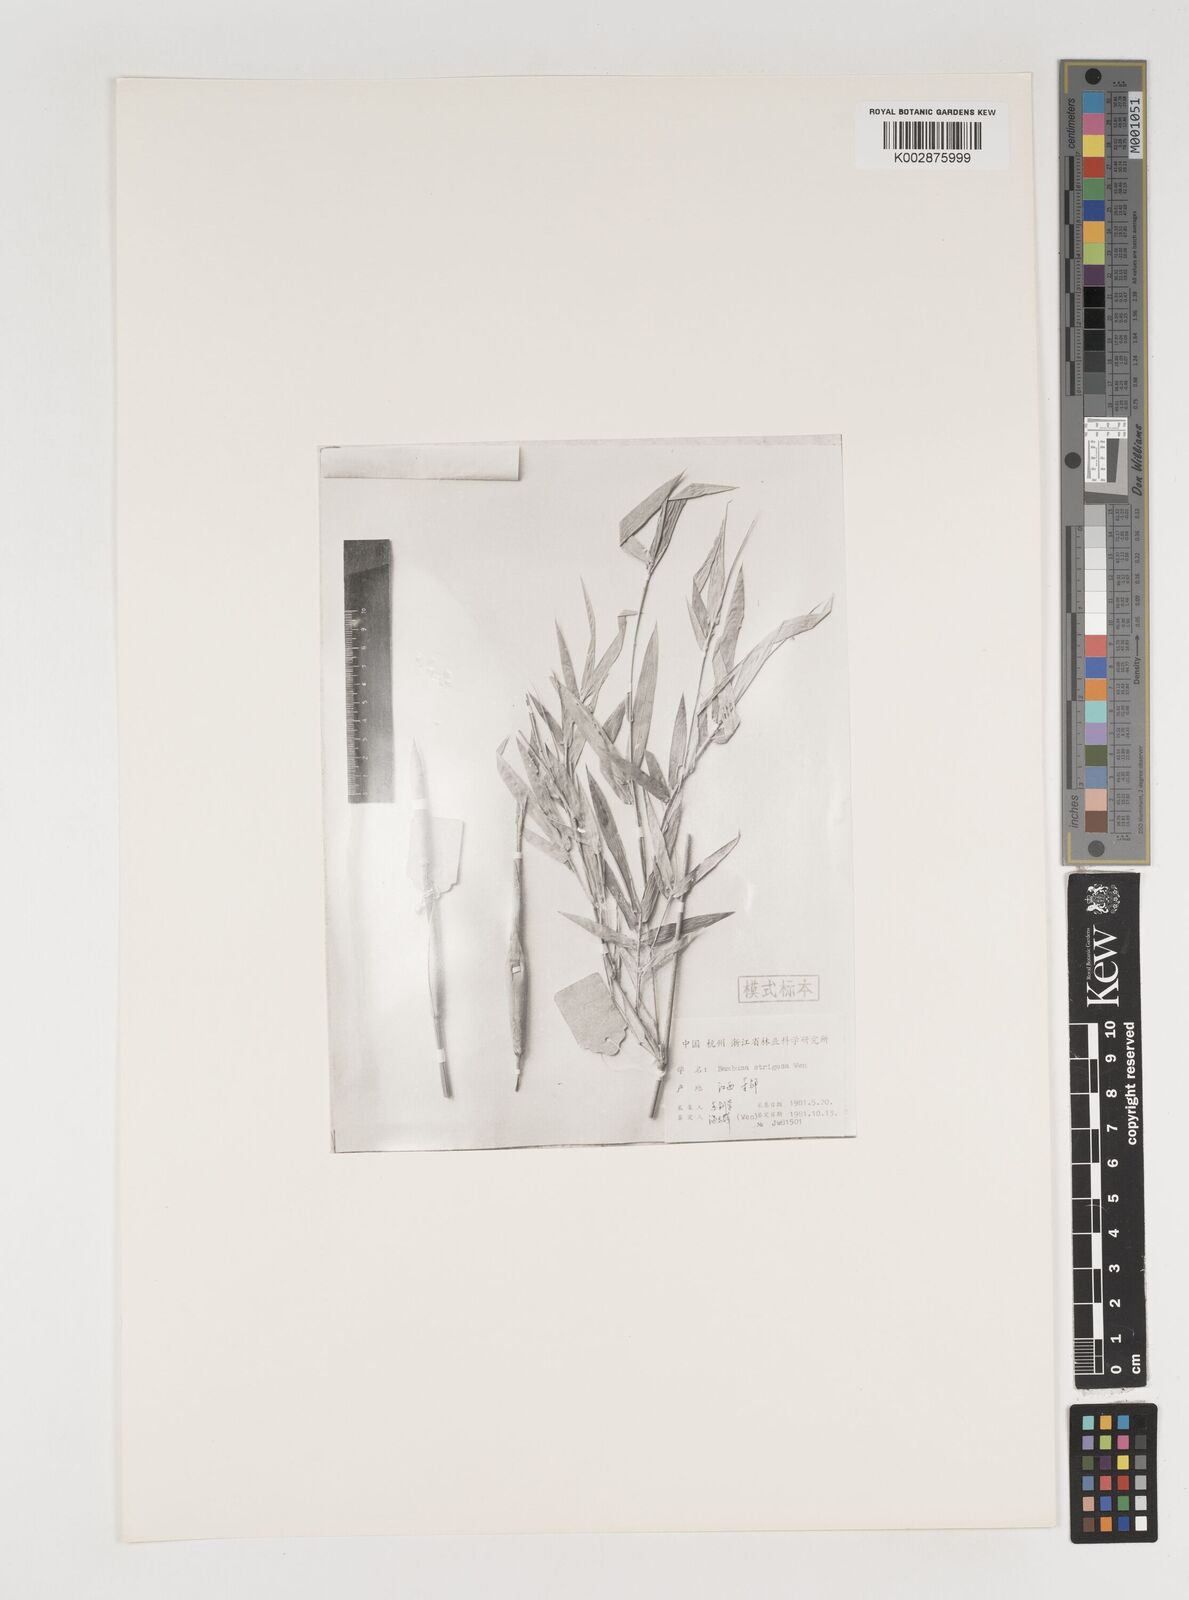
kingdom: Plantae
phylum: Tracheophyta
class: Liliopsida
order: Poales
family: Poaceae
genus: Bambusa
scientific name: Bambusa multiplex
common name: Hedge bamboo
